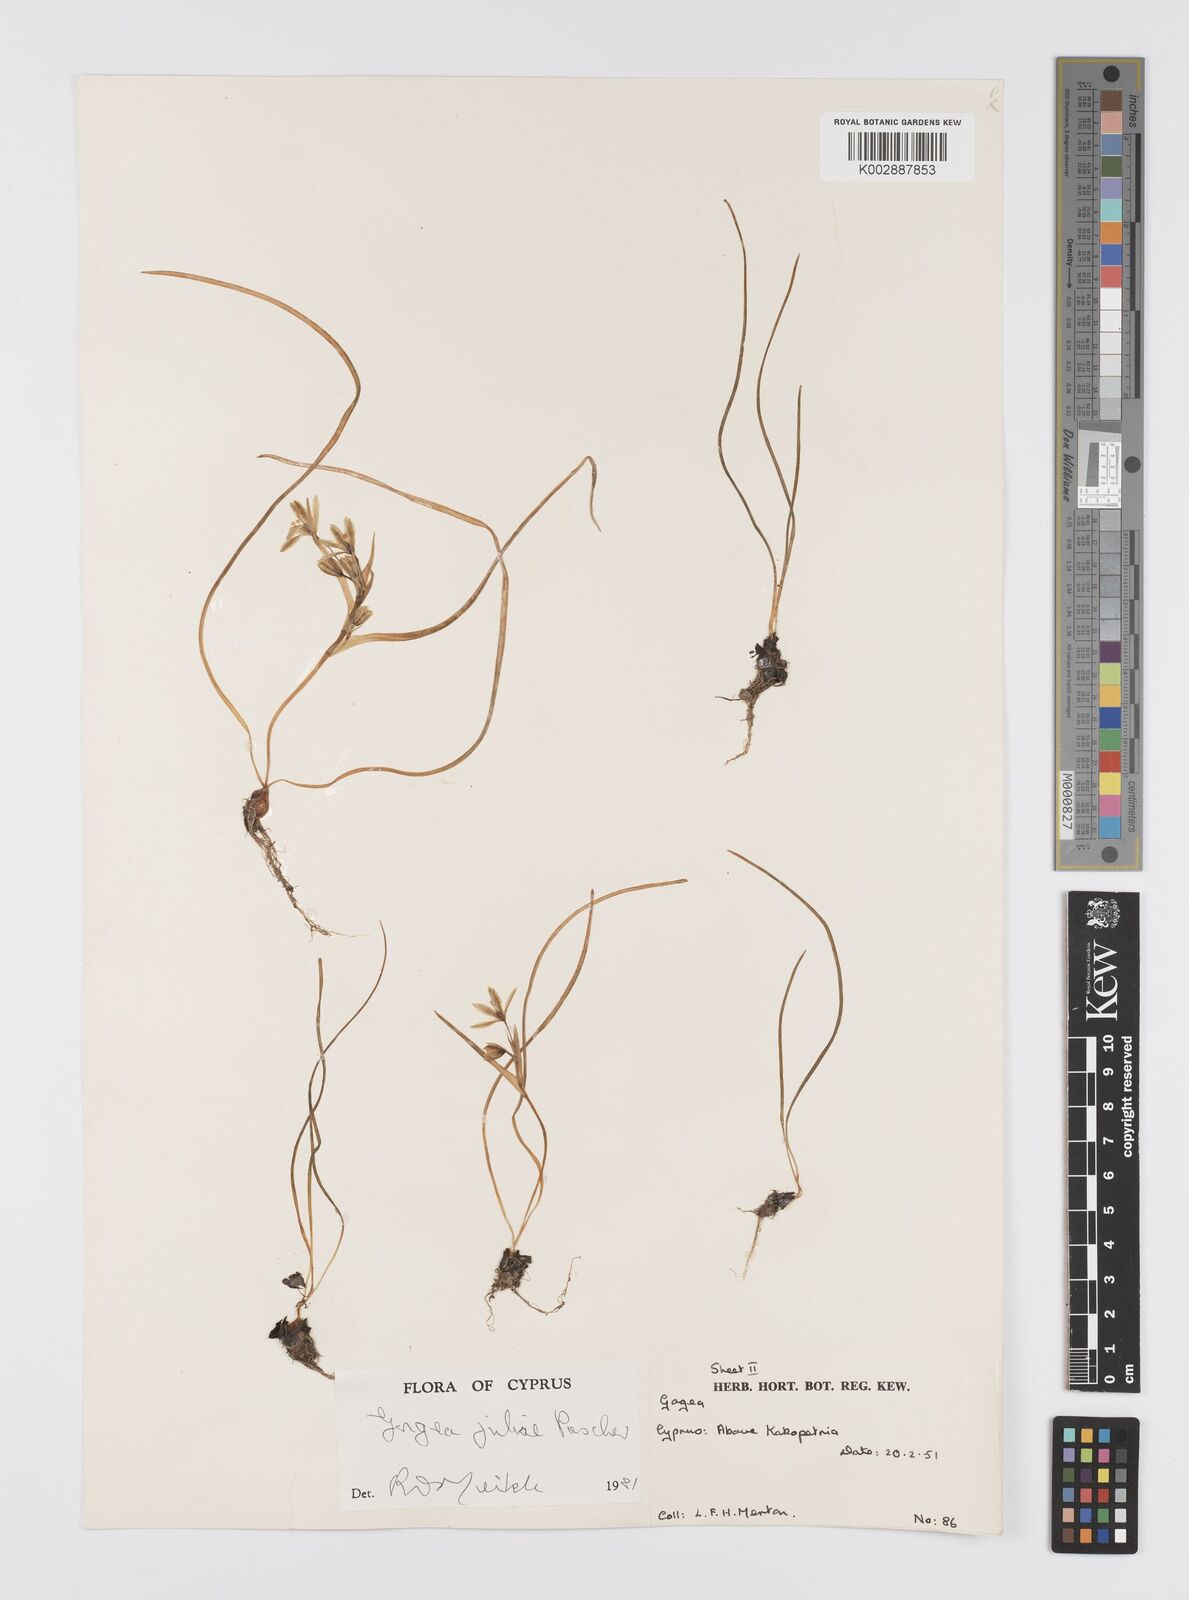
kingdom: Plantae
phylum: Tracheophyta
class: Liliopsida
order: Liliales
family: Liliaceae
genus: Gagea
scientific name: Gagea juliae
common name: Julia’s gagea
